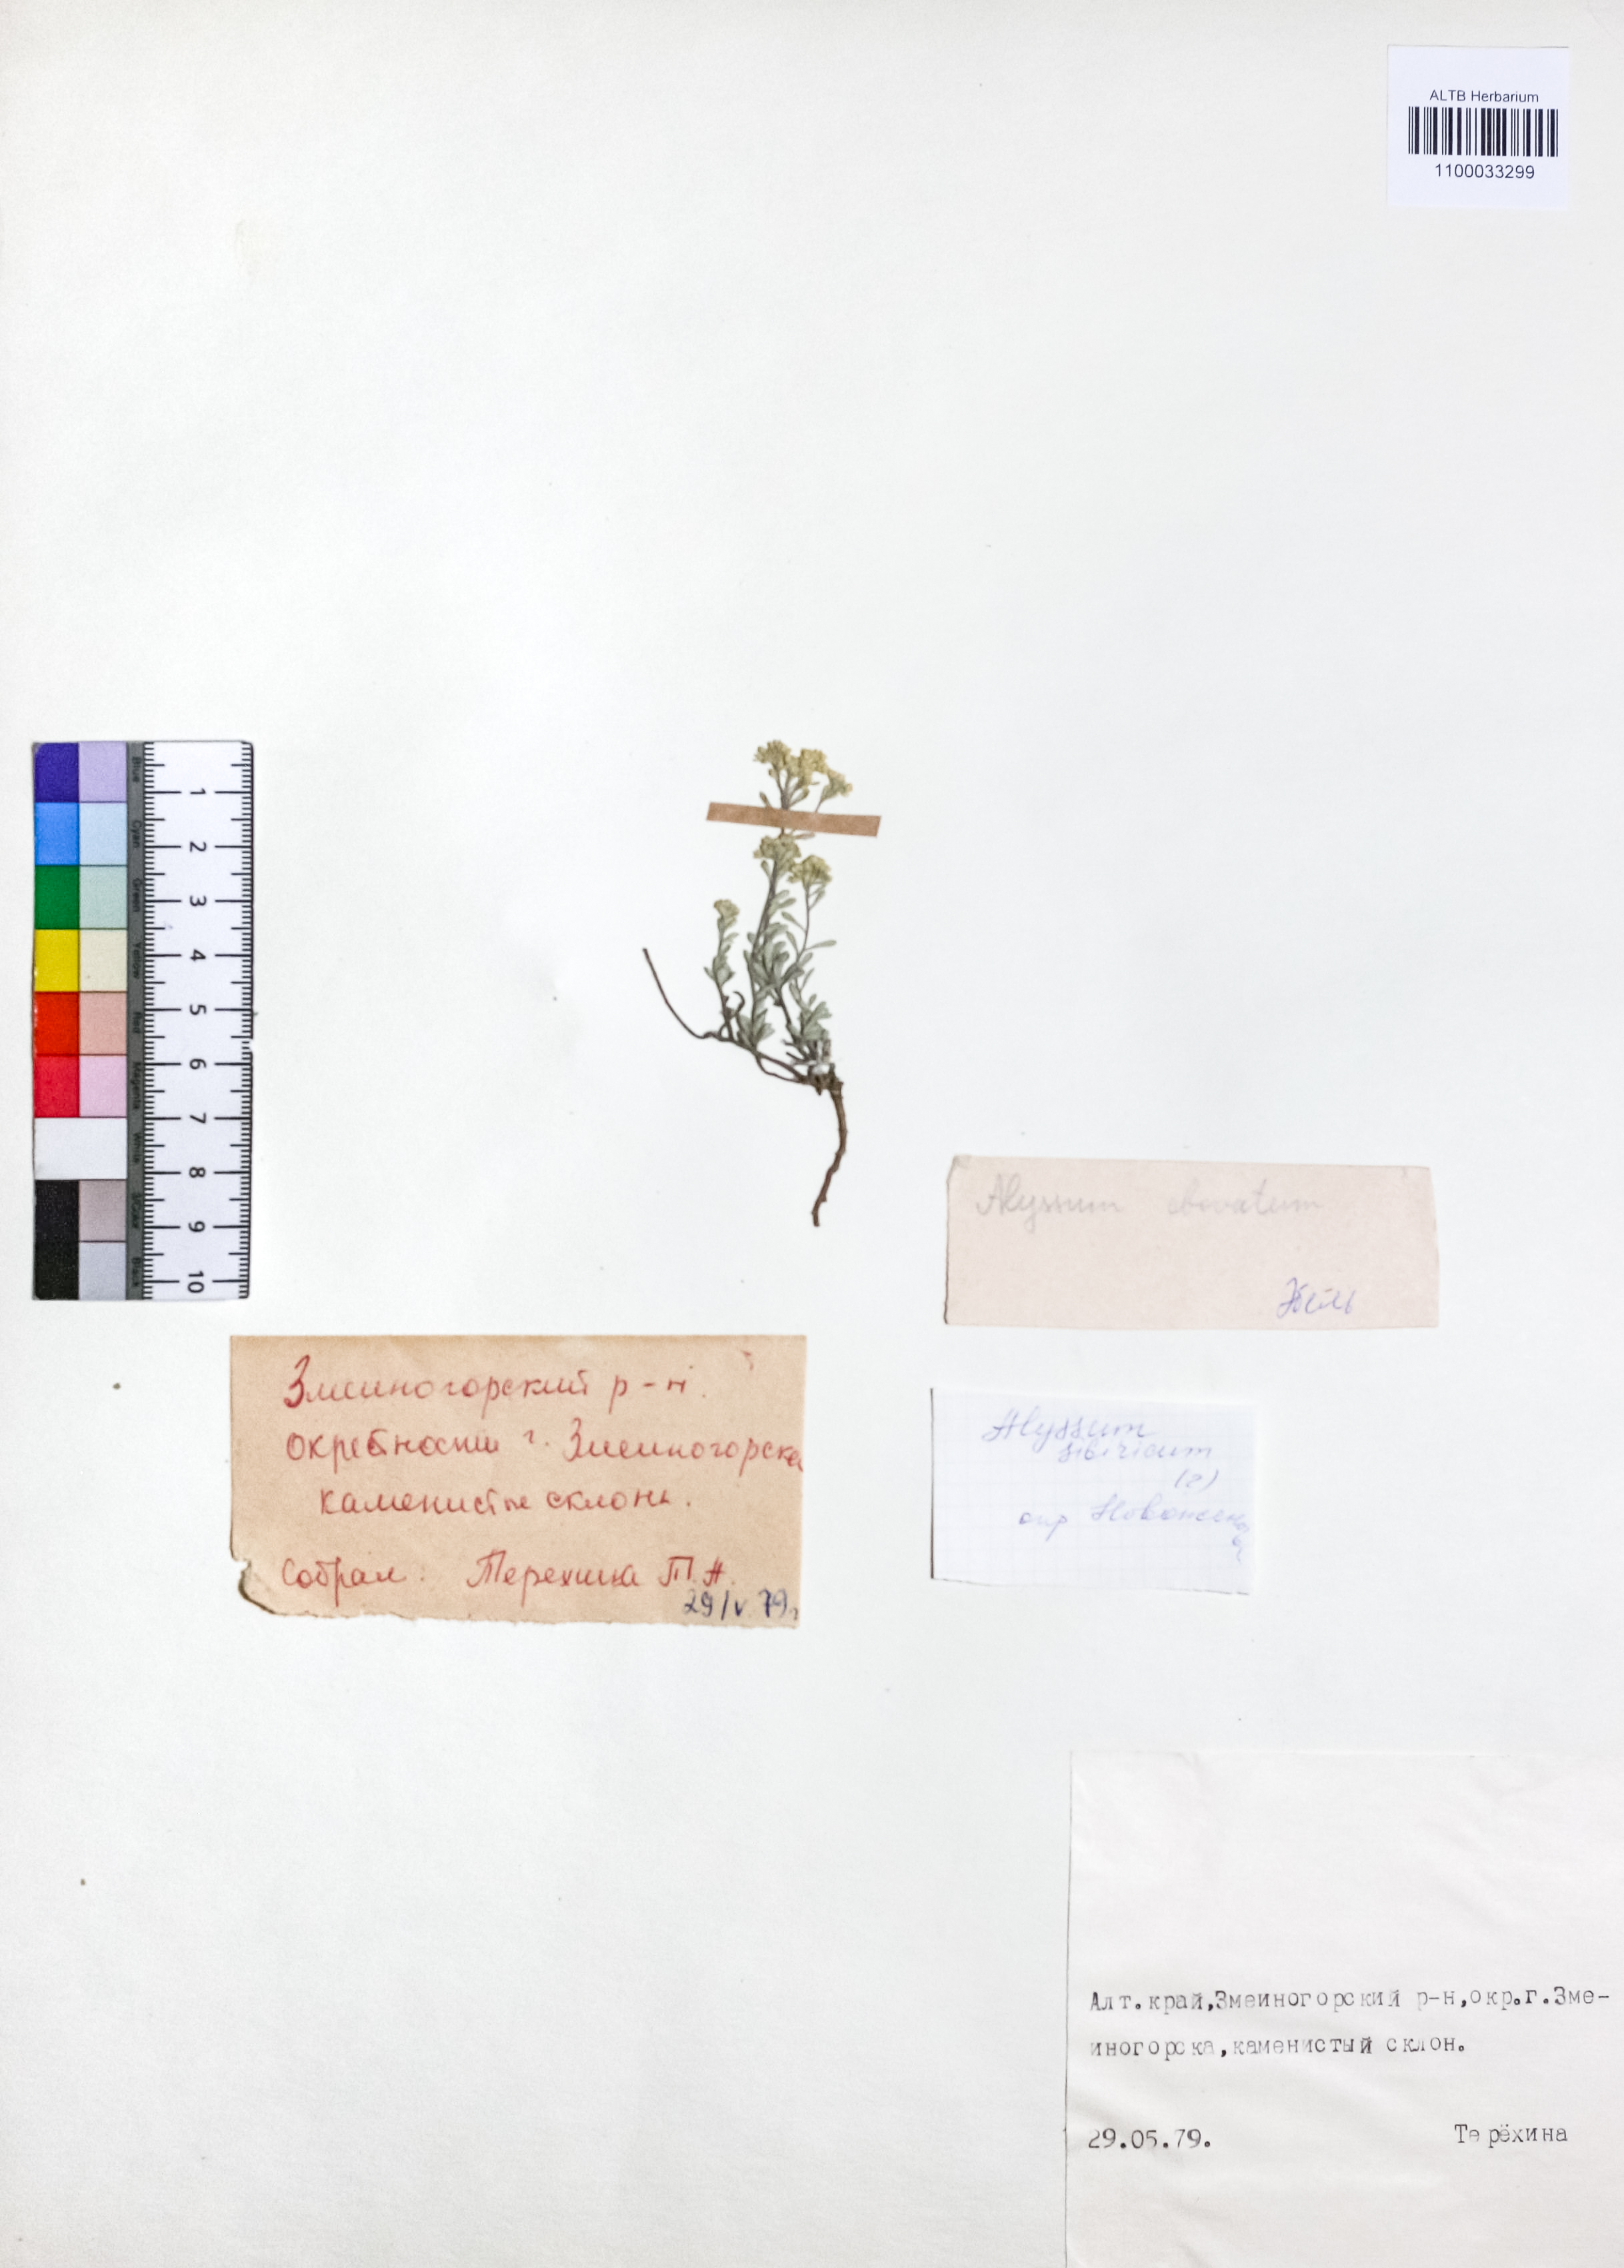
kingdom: Plantae
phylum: Tracheophyta
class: Magnoliopsida
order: Brassicales
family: Brassicaceae
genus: Odontarrhena
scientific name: Odontarrhena obovata
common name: American alyssum
